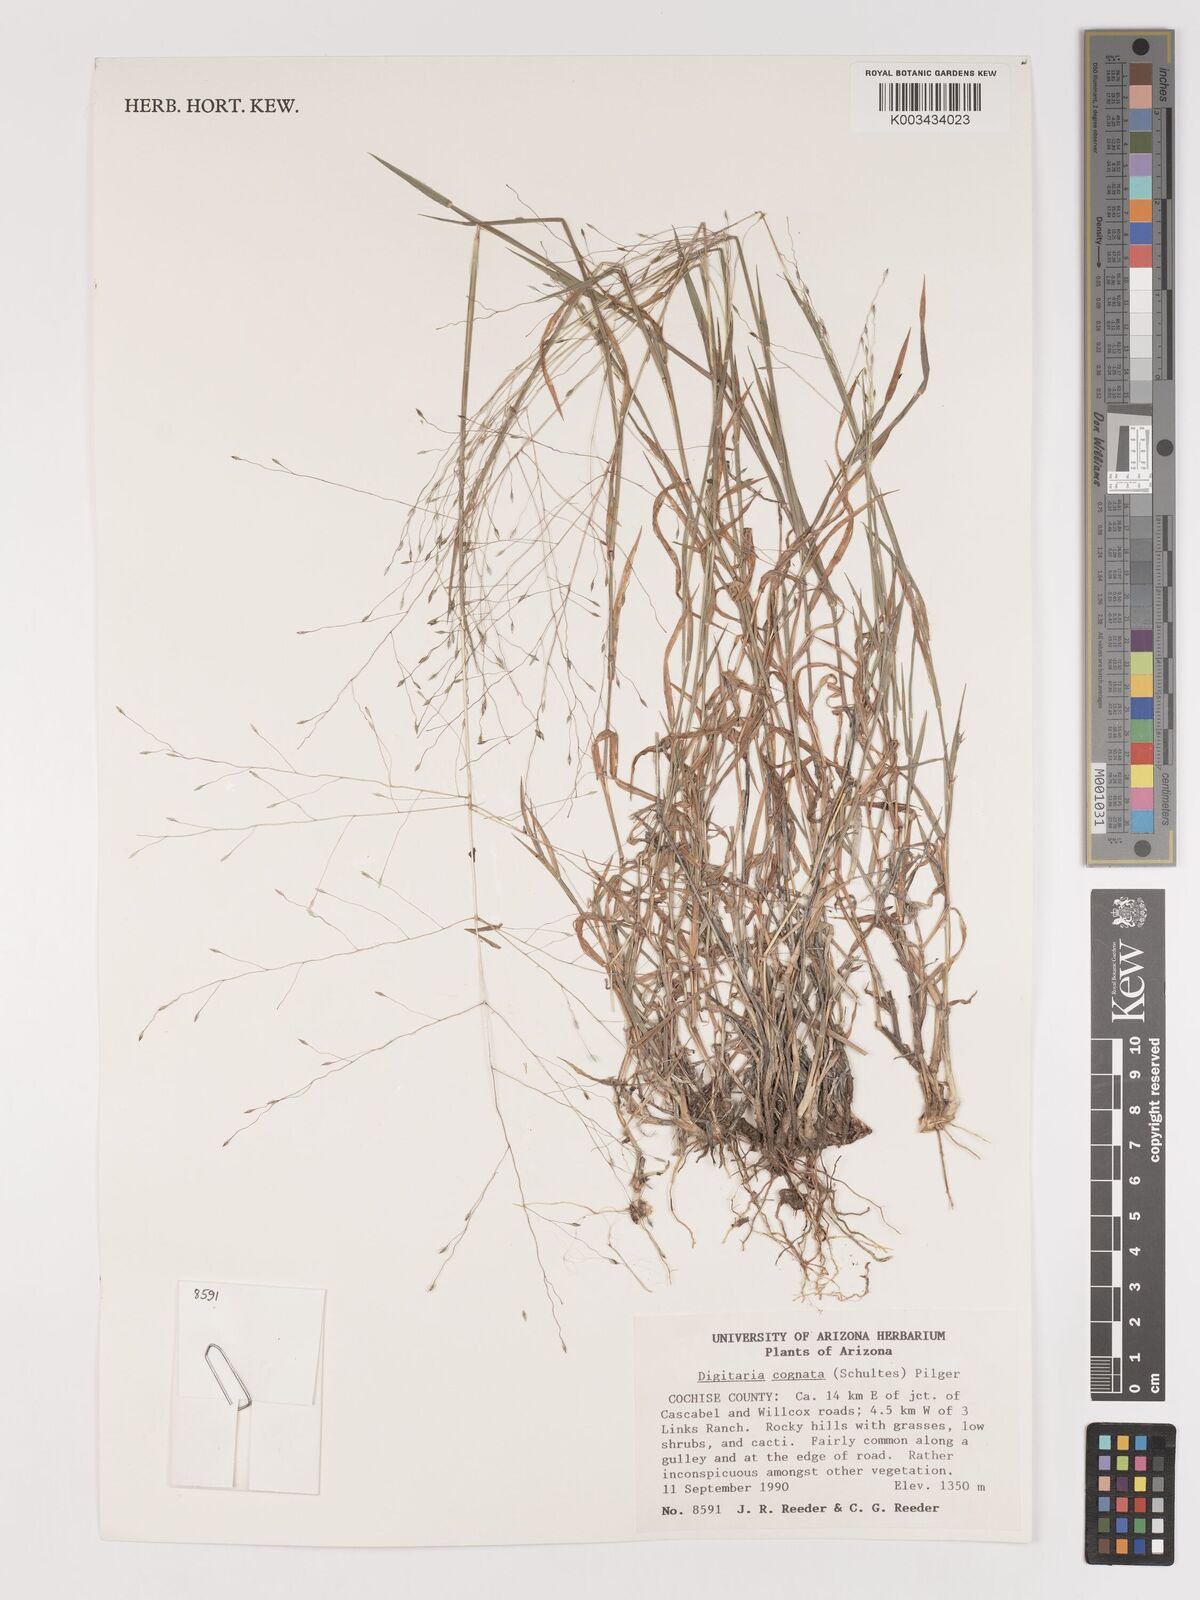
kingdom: Plantae
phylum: Tracheophyta
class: Liliopsida
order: Poales
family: Poaceae
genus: Digitaria
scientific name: Digitaria cognata
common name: Fall witchgrass
